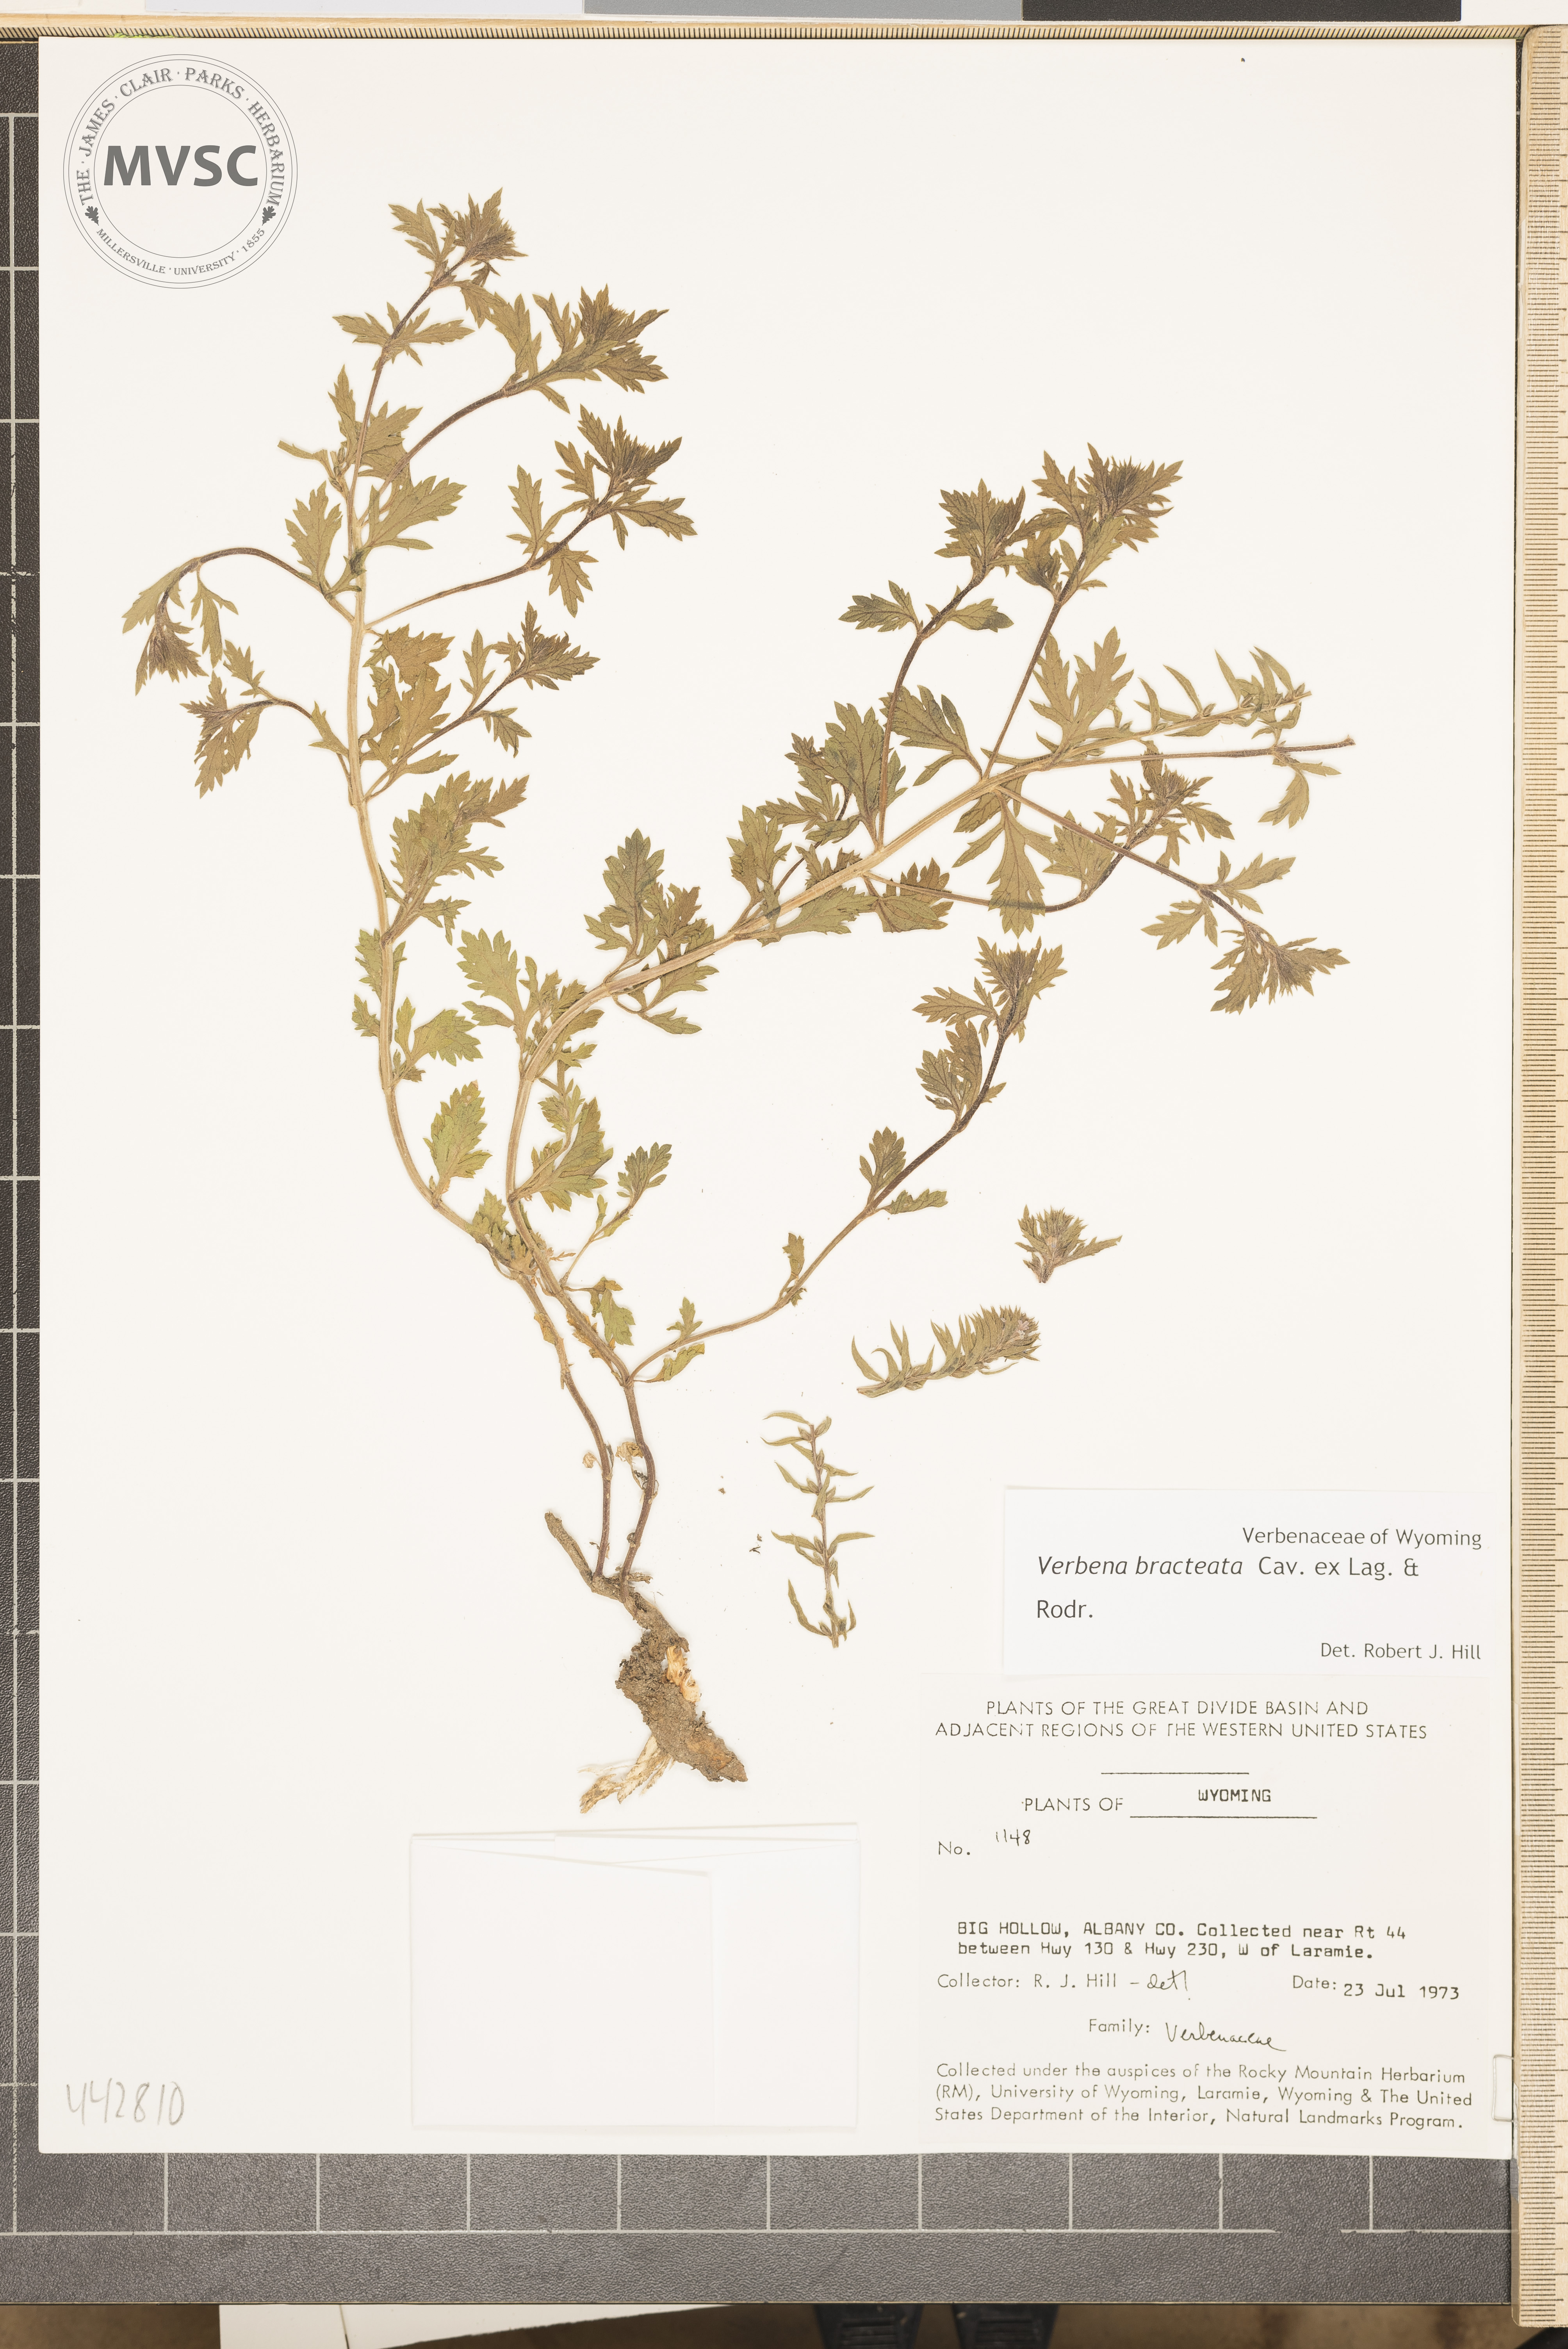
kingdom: Plantae
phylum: Tracheophyta
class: Magnoliopsida
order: Lamiales
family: Verbenaceae
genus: Verbena
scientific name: Verbena bracteata
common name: Bracted vervain
